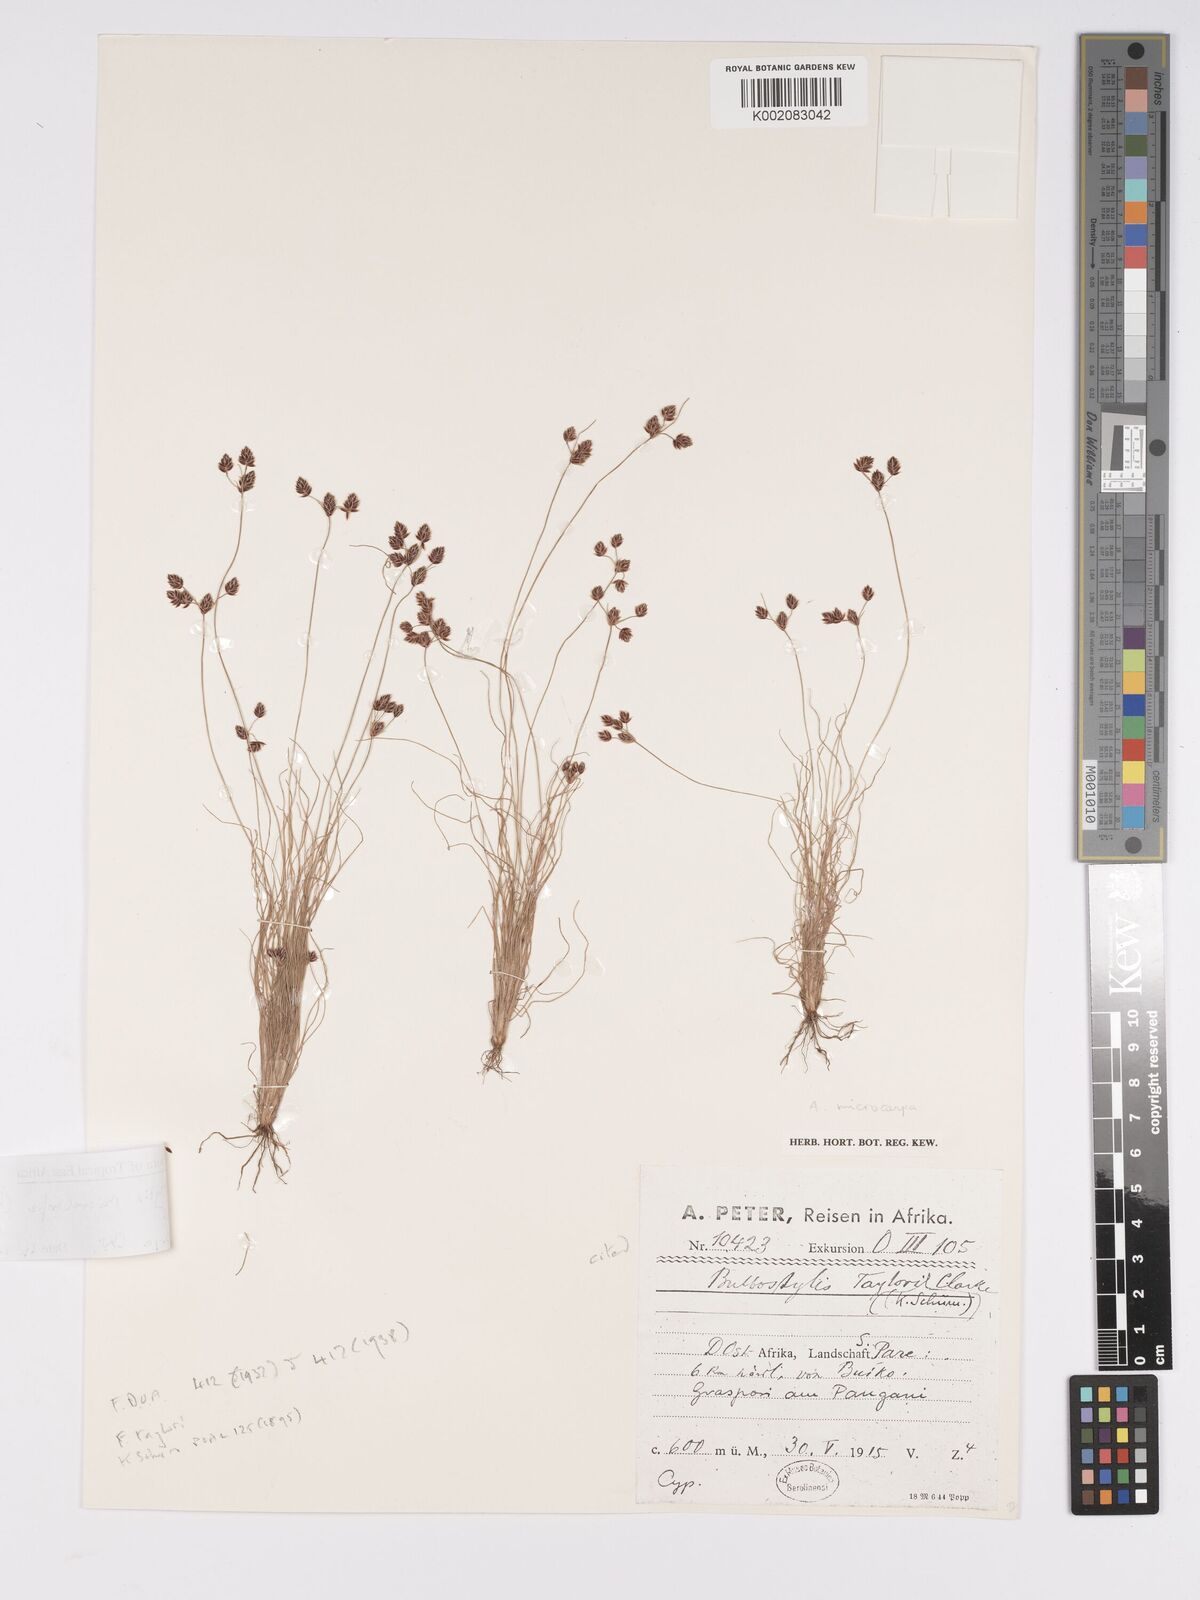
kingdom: Plantae
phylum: Tracheophyta
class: Liliopsida
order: Poales
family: Cyperaceae
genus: Bulbostylis
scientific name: Bulbostylis microcarpa
